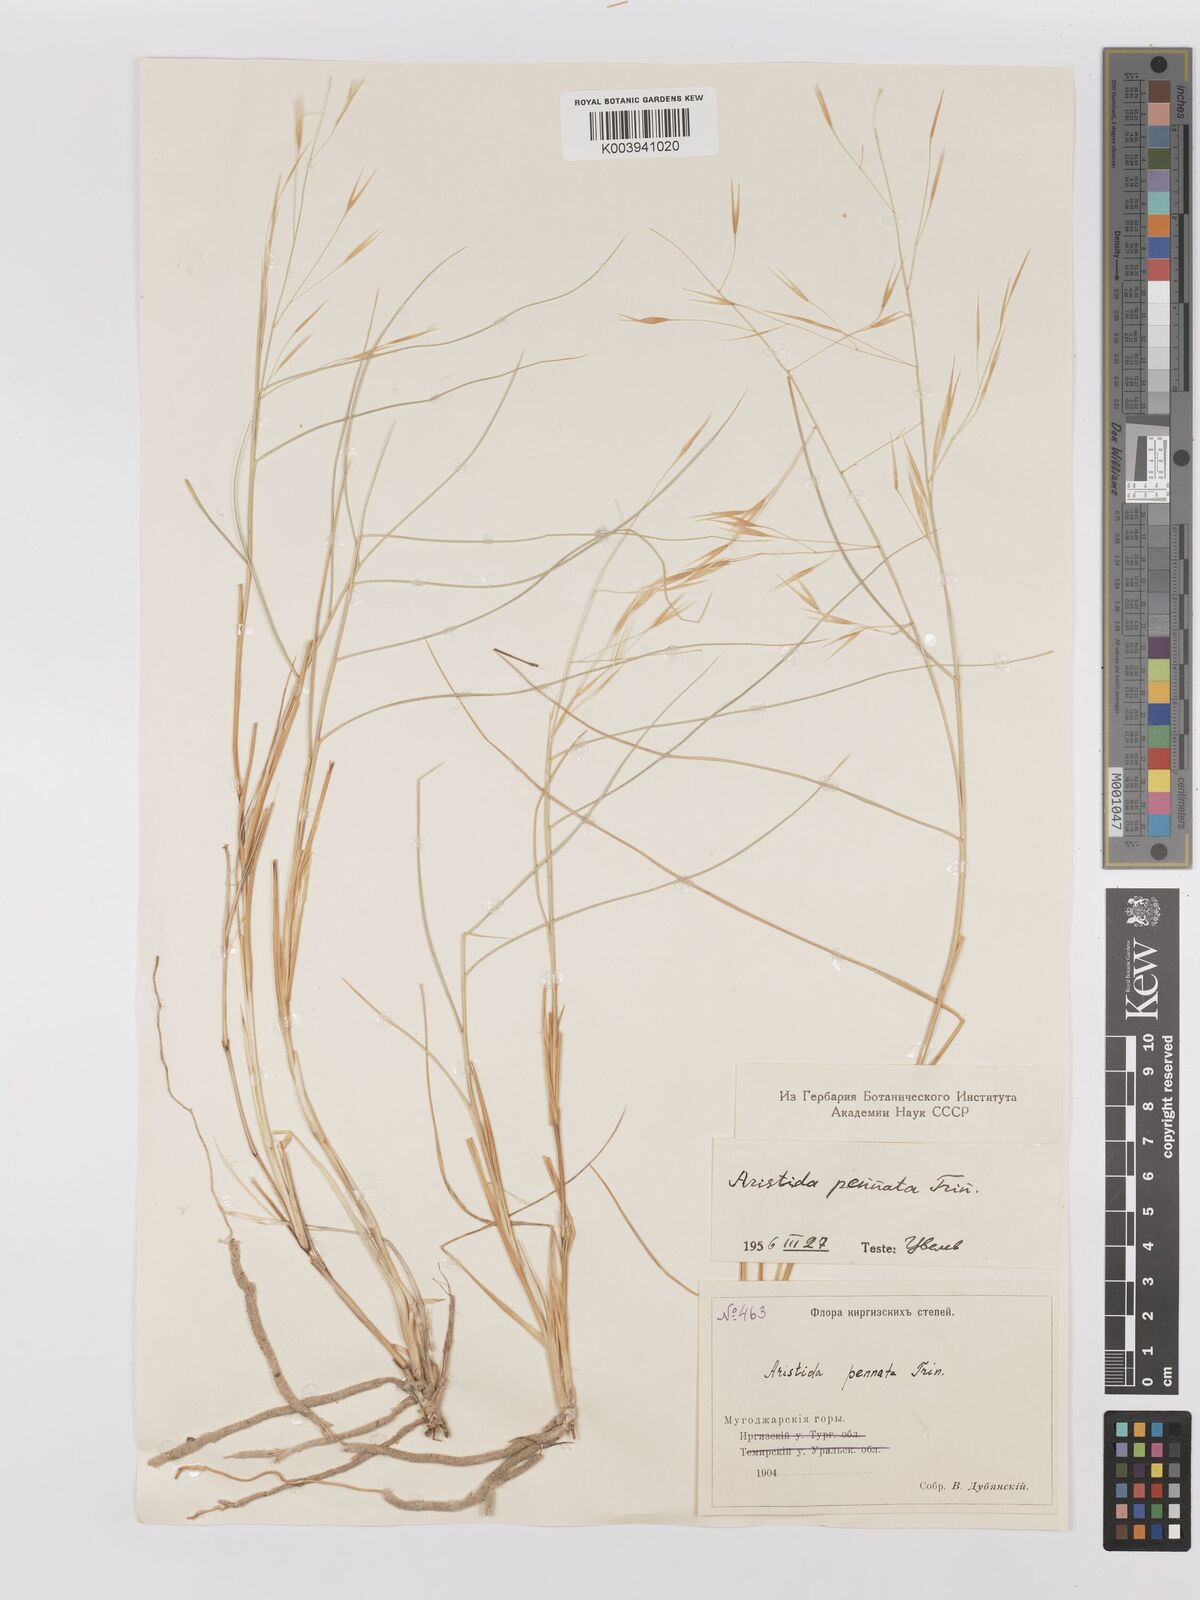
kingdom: Plantae
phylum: Tracheophyta
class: Liliopsida
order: Poales
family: Poaceae
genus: Stipagrostis
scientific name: Stipagrostis pennata
